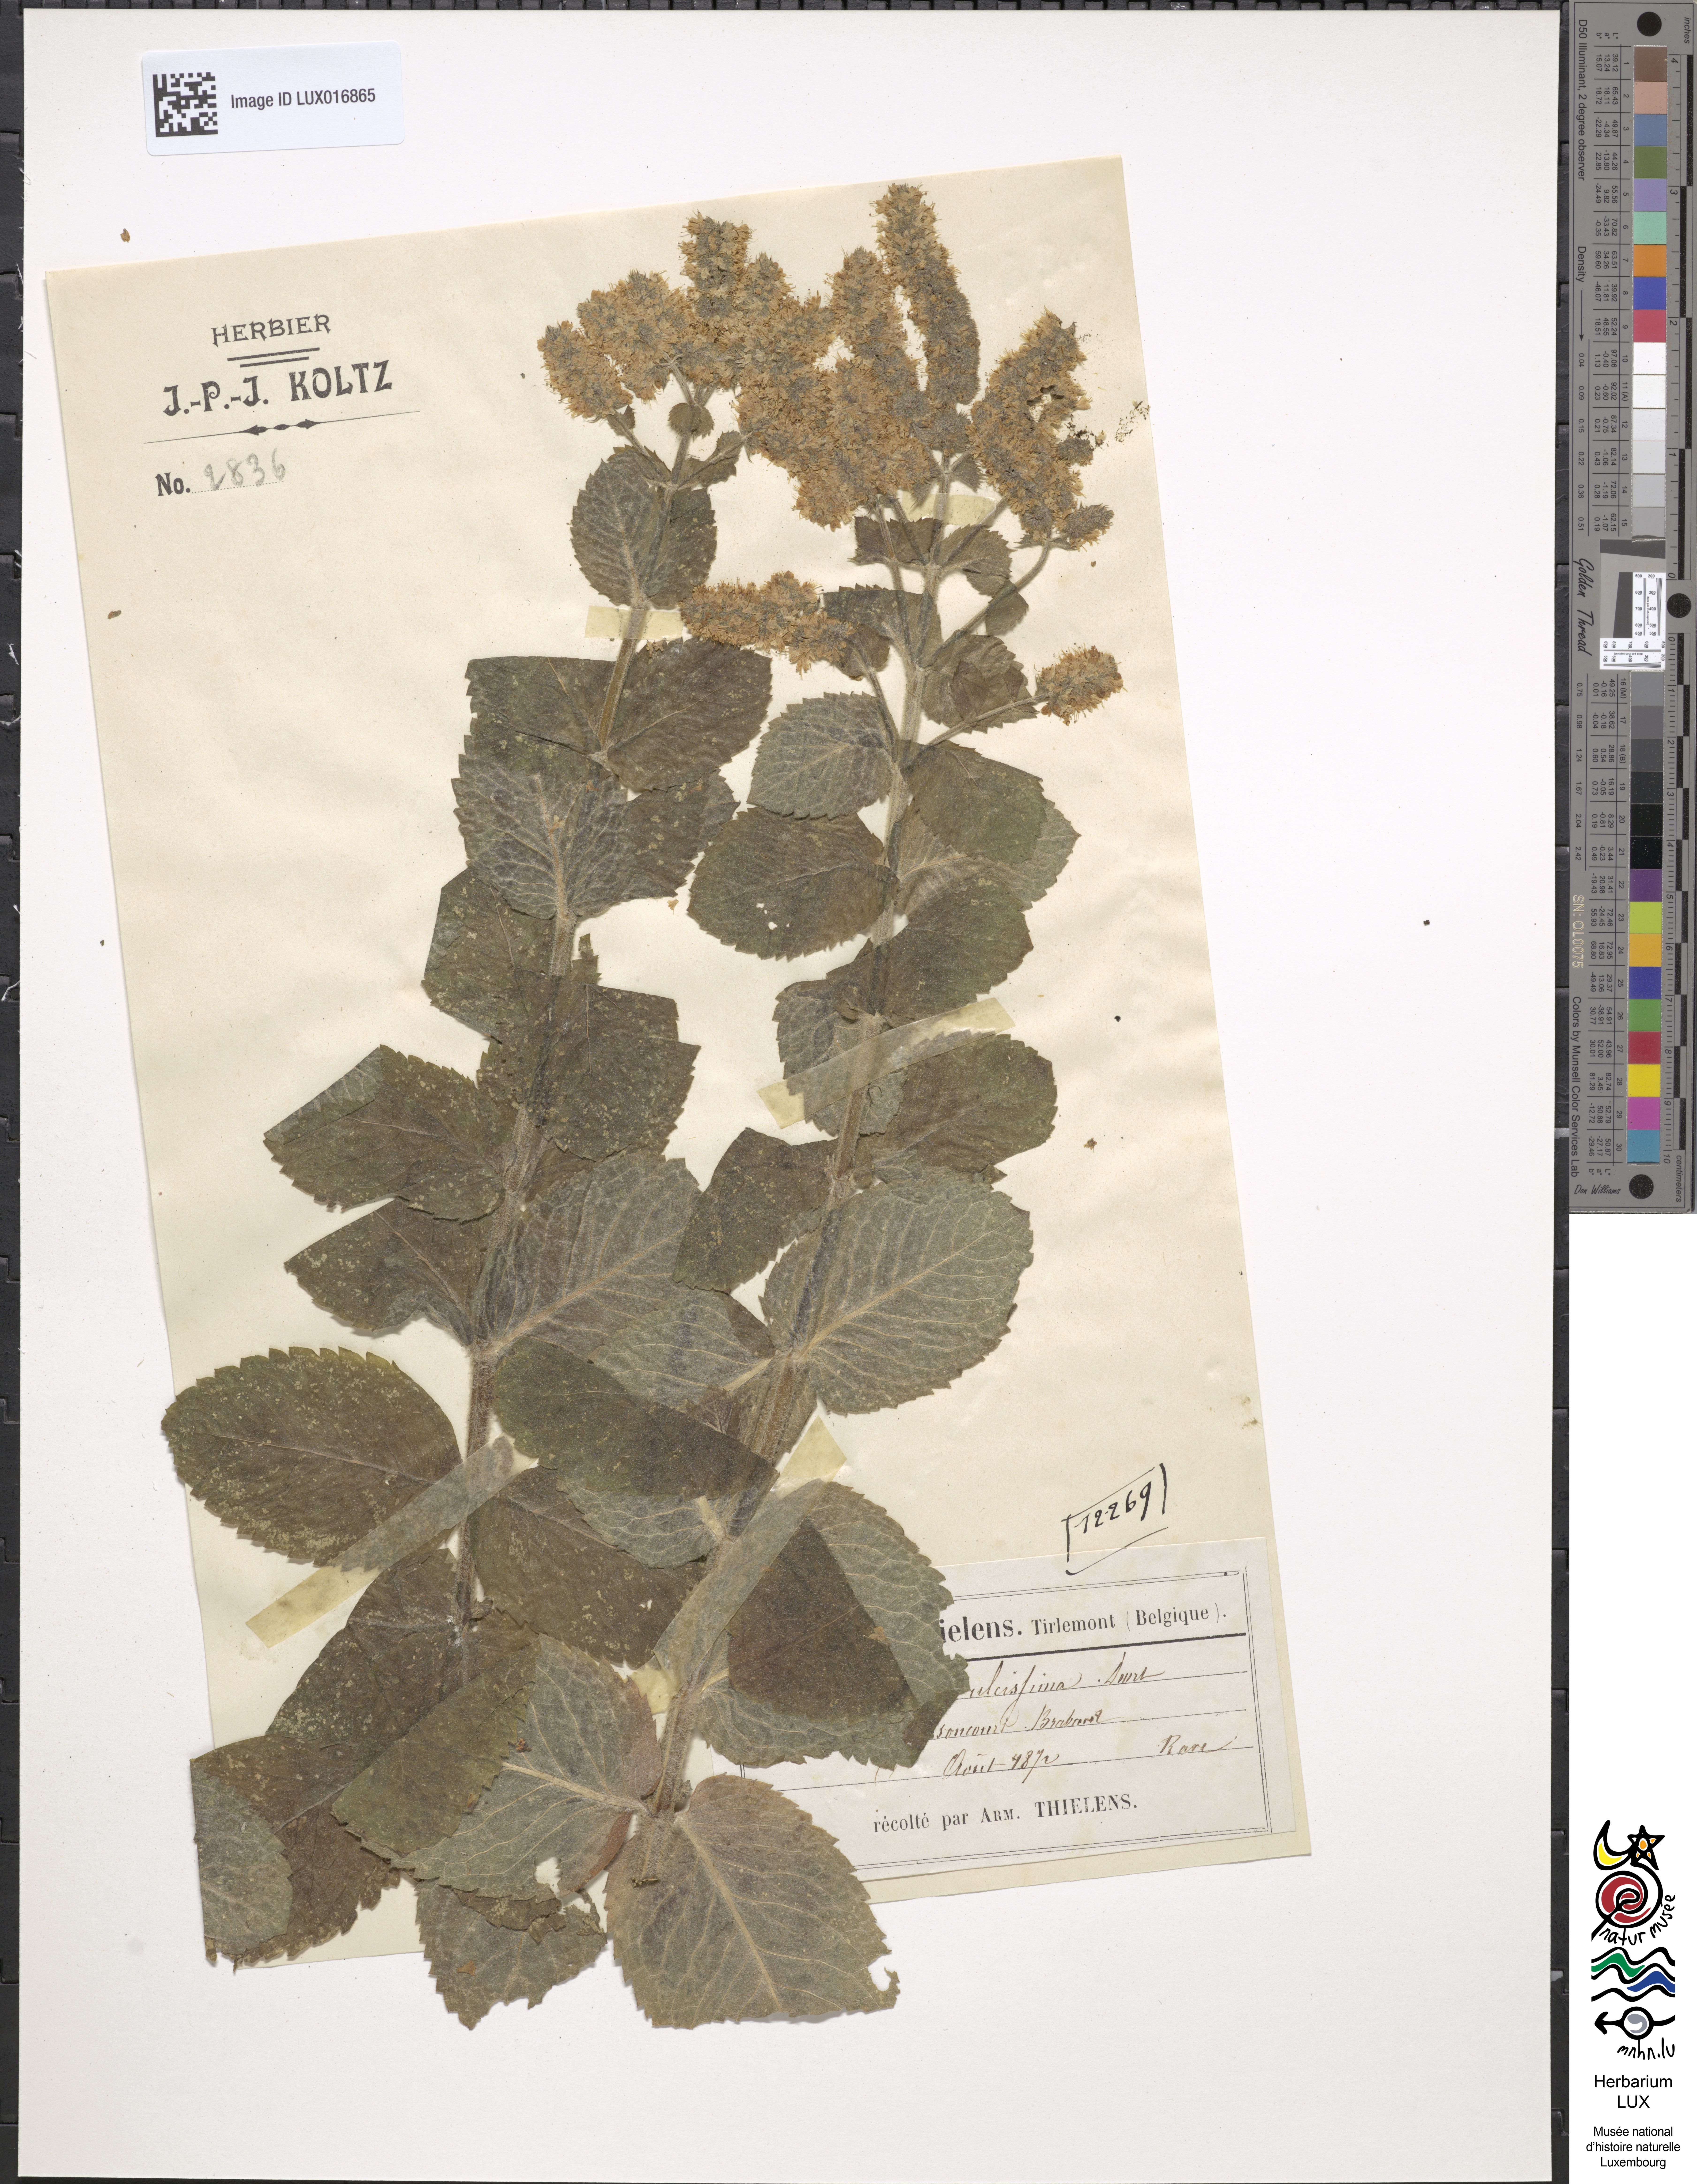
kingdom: Plantae
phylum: Tracheophyta
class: Magnoliopsida
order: Lamiales
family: Lamiaceae
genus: Mentha
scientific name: Mentha rotundifolia
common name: Bigleaf mint
